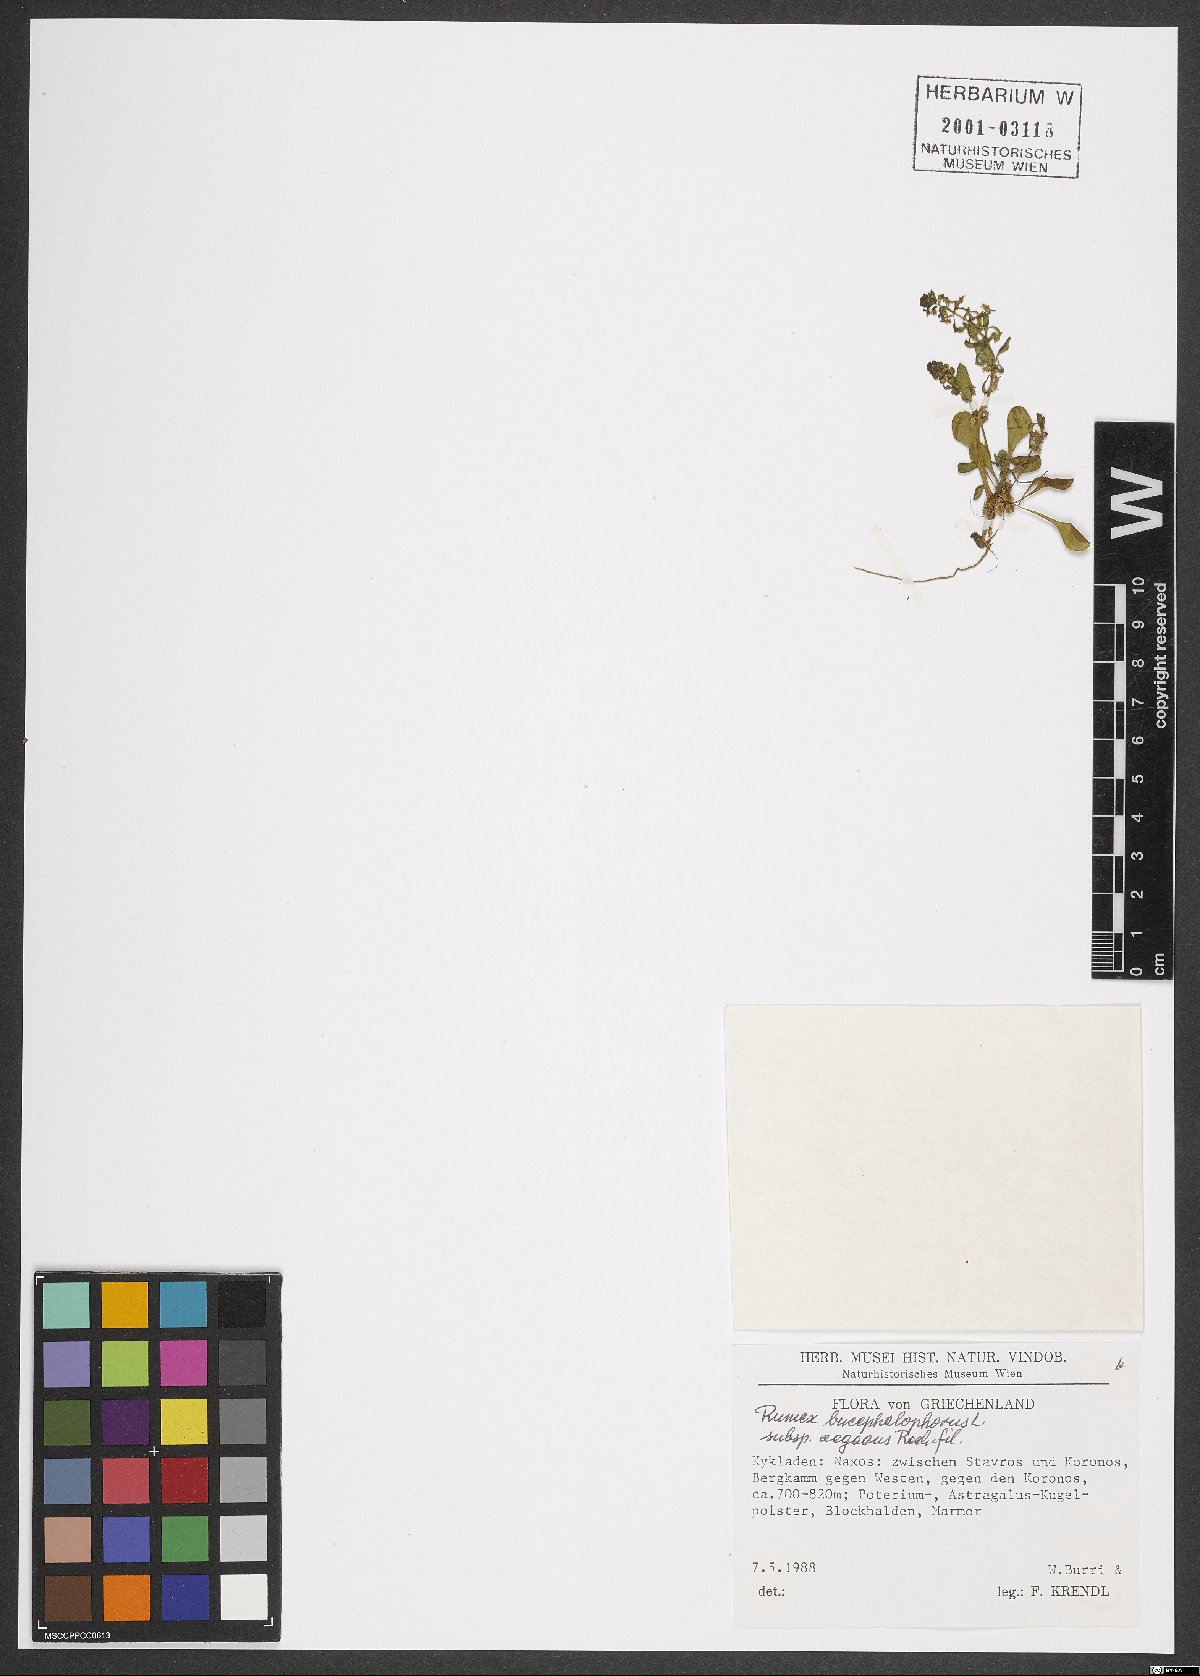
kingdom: Plantae
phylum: Tracheophyta
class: Magnoliopsida
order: Caryophyllales
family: Polygonaceae
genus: Rumex
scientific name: Rumex bucephalophorus
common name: Red dock
